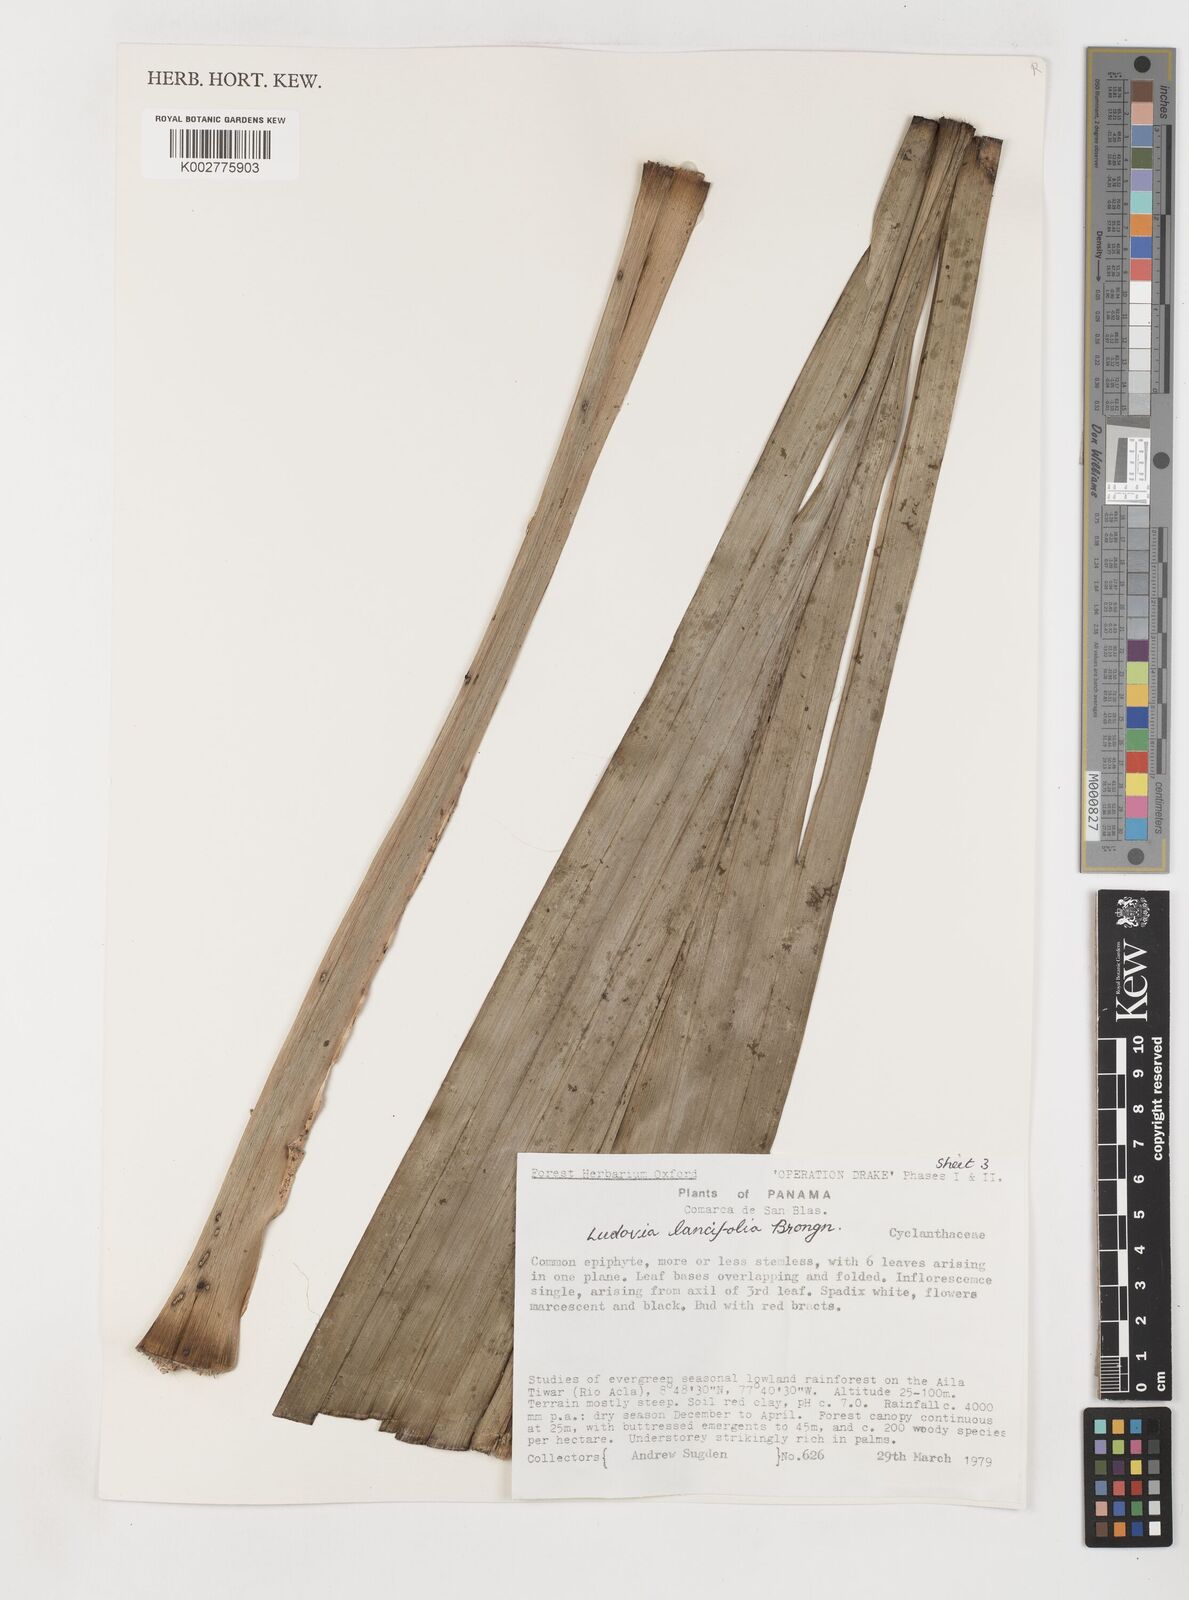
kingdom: Plantae
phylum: Tracheophyta
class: Liliopsida
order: Pandanales
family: Cyclanthaceae
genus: Ludovia
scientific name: Ludovia lancifolia
